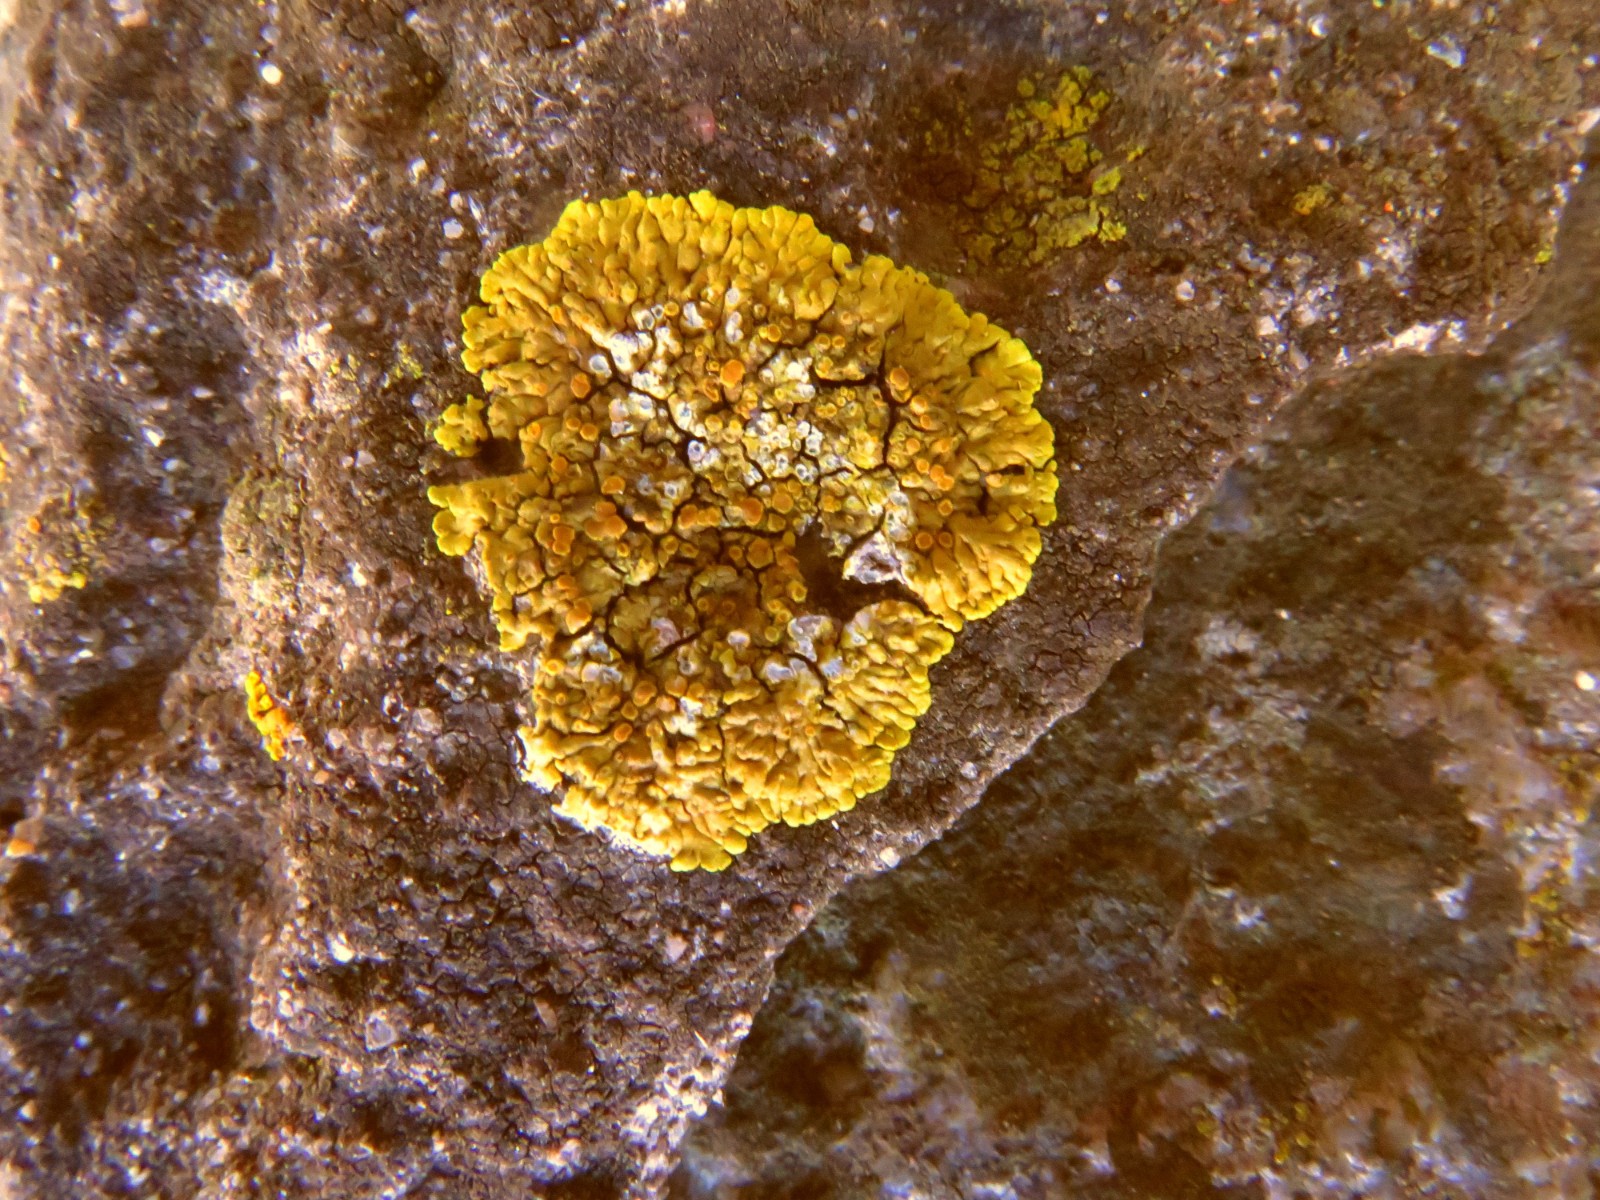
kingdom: Fungi
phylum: Ascomycota
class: Lecanoromycetes
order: Teloschistales
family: Teloschistaceae
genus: Variospora
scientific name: Variospora flavescens
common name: kalk-orangelav
